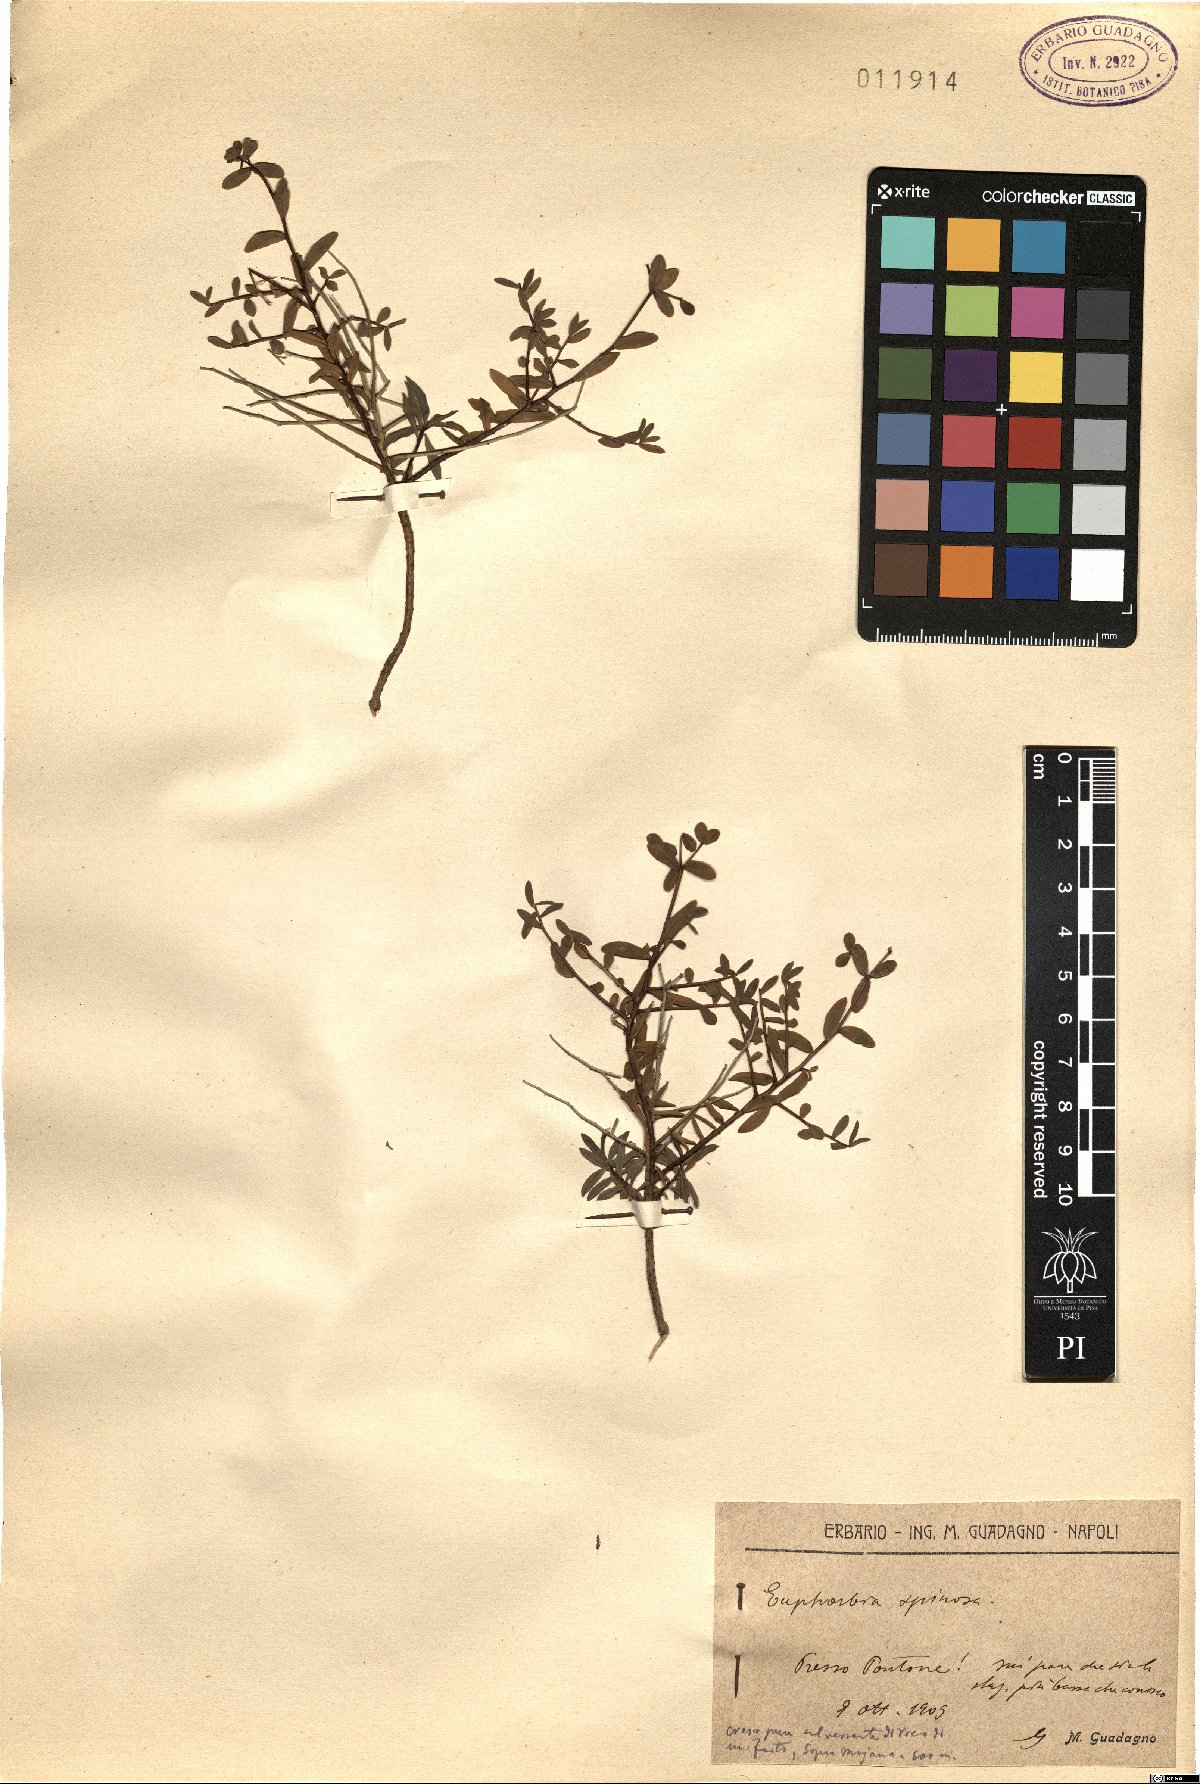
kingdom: Plantae
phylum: Tracheophyta
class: Magnoliopsida
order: Malpighiales
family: Euphorbiaceae
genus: Euphorbia
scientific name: Euphorbia spinosa
